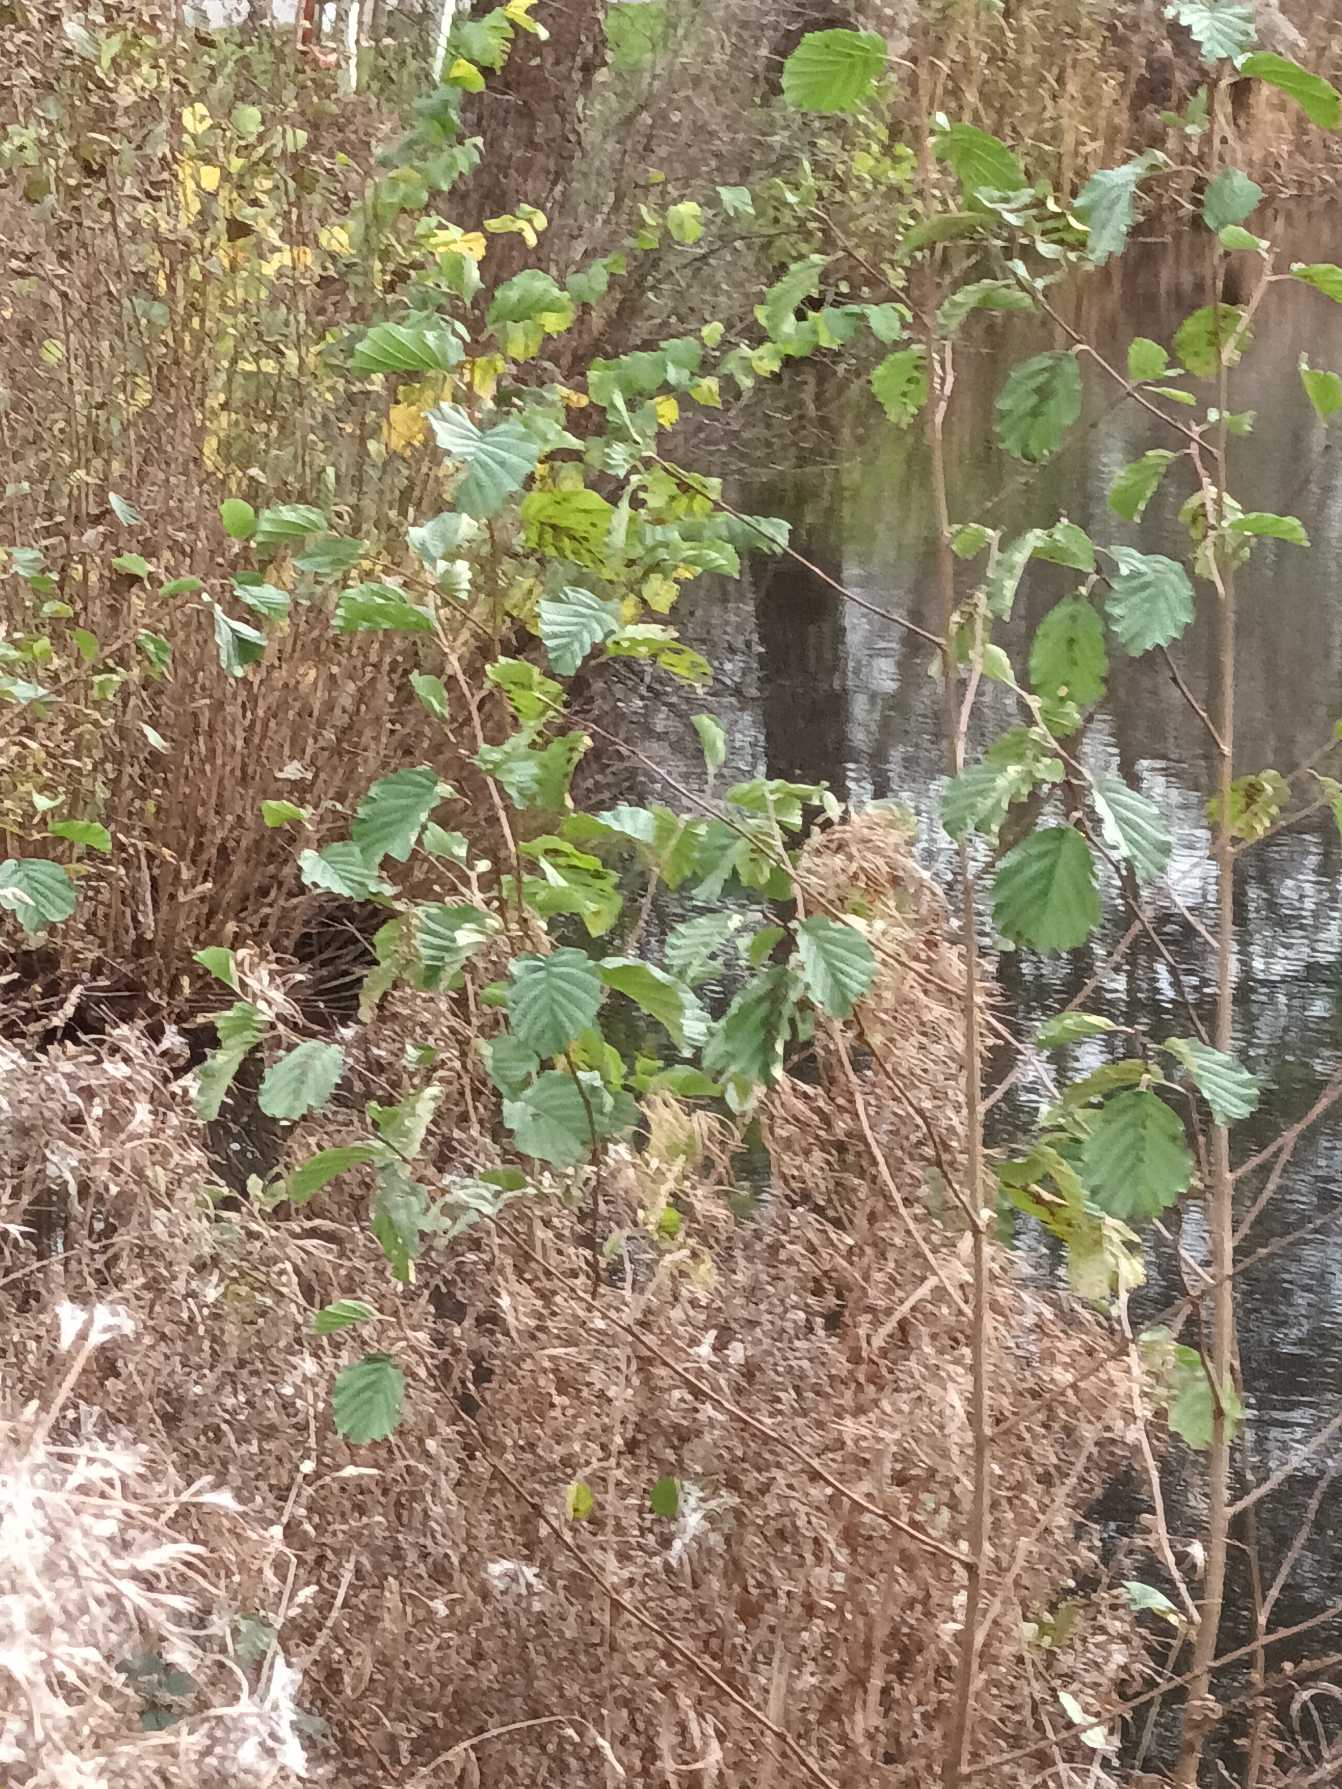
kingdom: Plantae
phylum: Tracheophyta
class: Magnoliopsida
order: Fagales
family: Betulaceae
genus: Alnus
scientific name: Alnus glutinosa
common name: Rød-el
